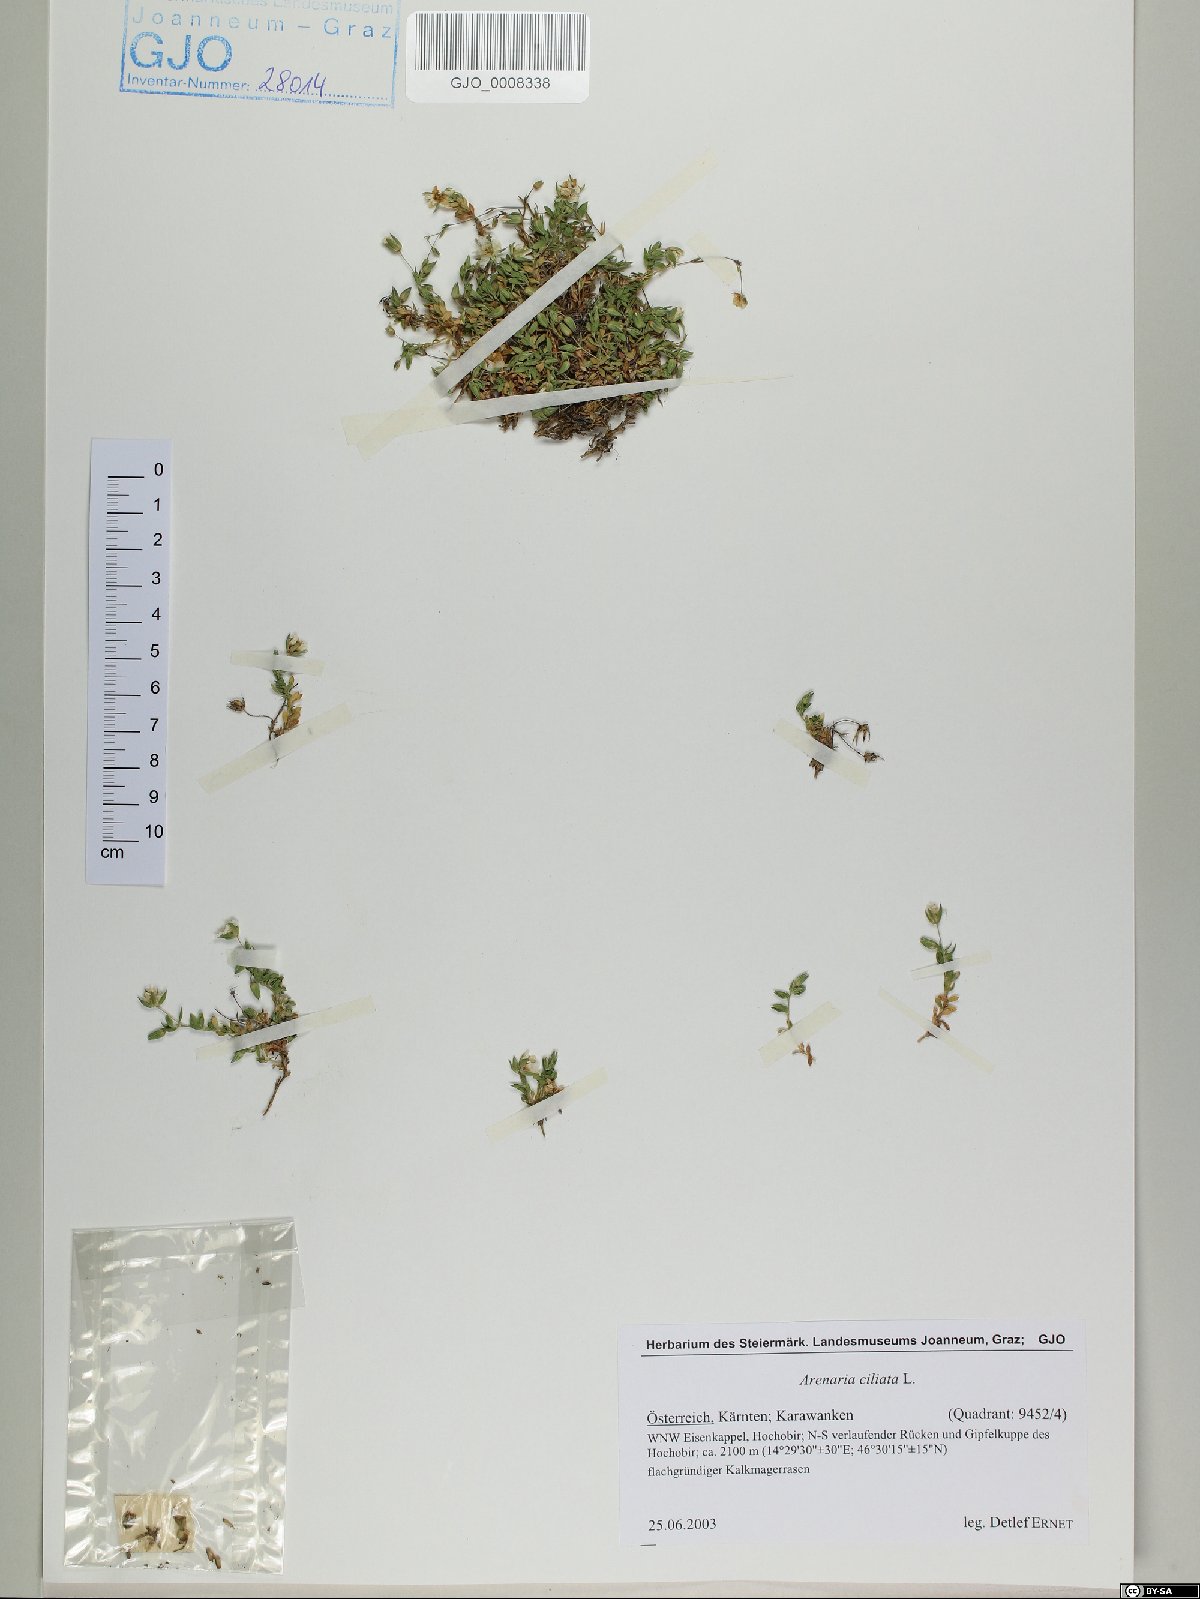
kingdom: Plantae
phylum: Tracheophyta
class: Magnoliopsida
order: Caryophyllales
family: Caryophyllaceae
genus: Arenaria
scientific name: Arenaria ciliata
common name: Fringed sandwort
